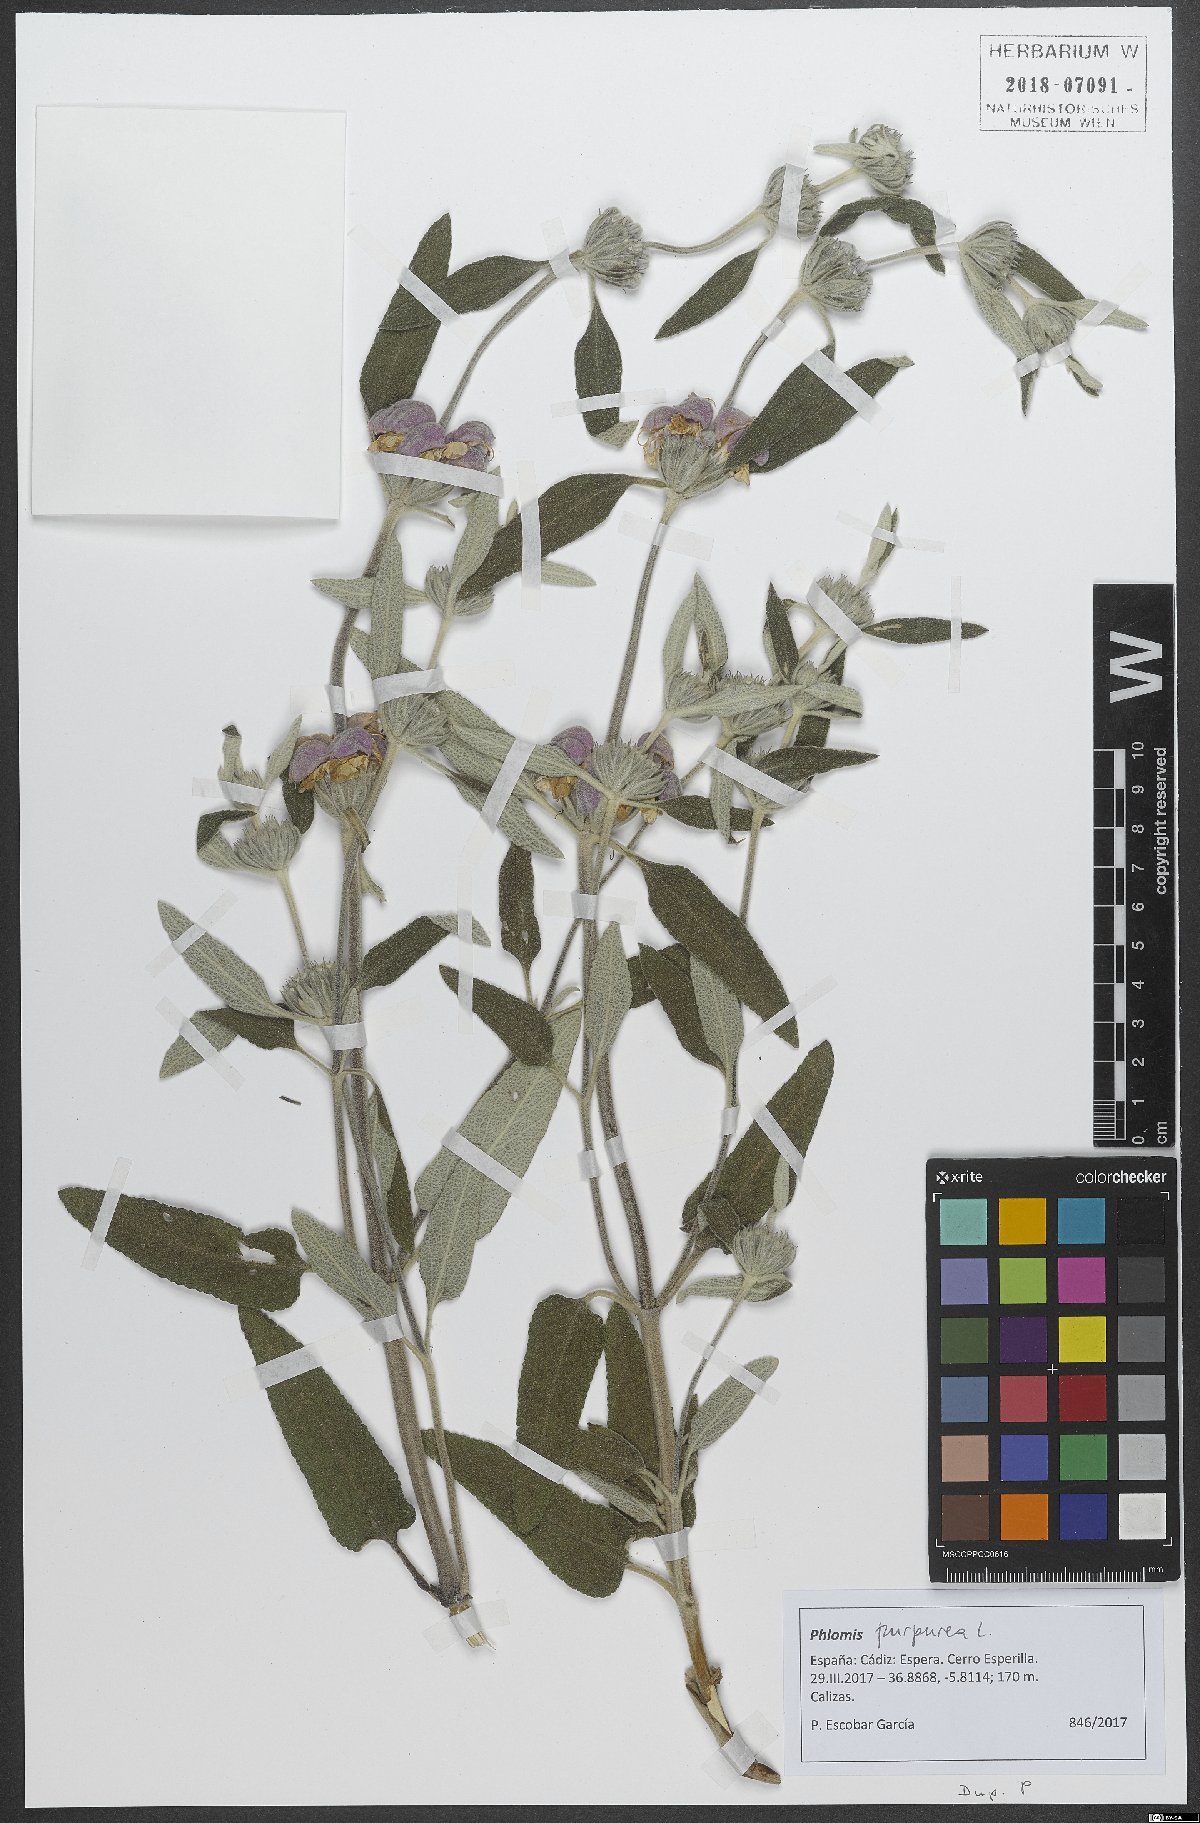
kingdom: Plantae
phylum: Tracheophyta
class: Magnoliopsida
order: Lamiales
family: Lamiaceae
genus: Phlomis
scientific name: Phlomis purpurea
